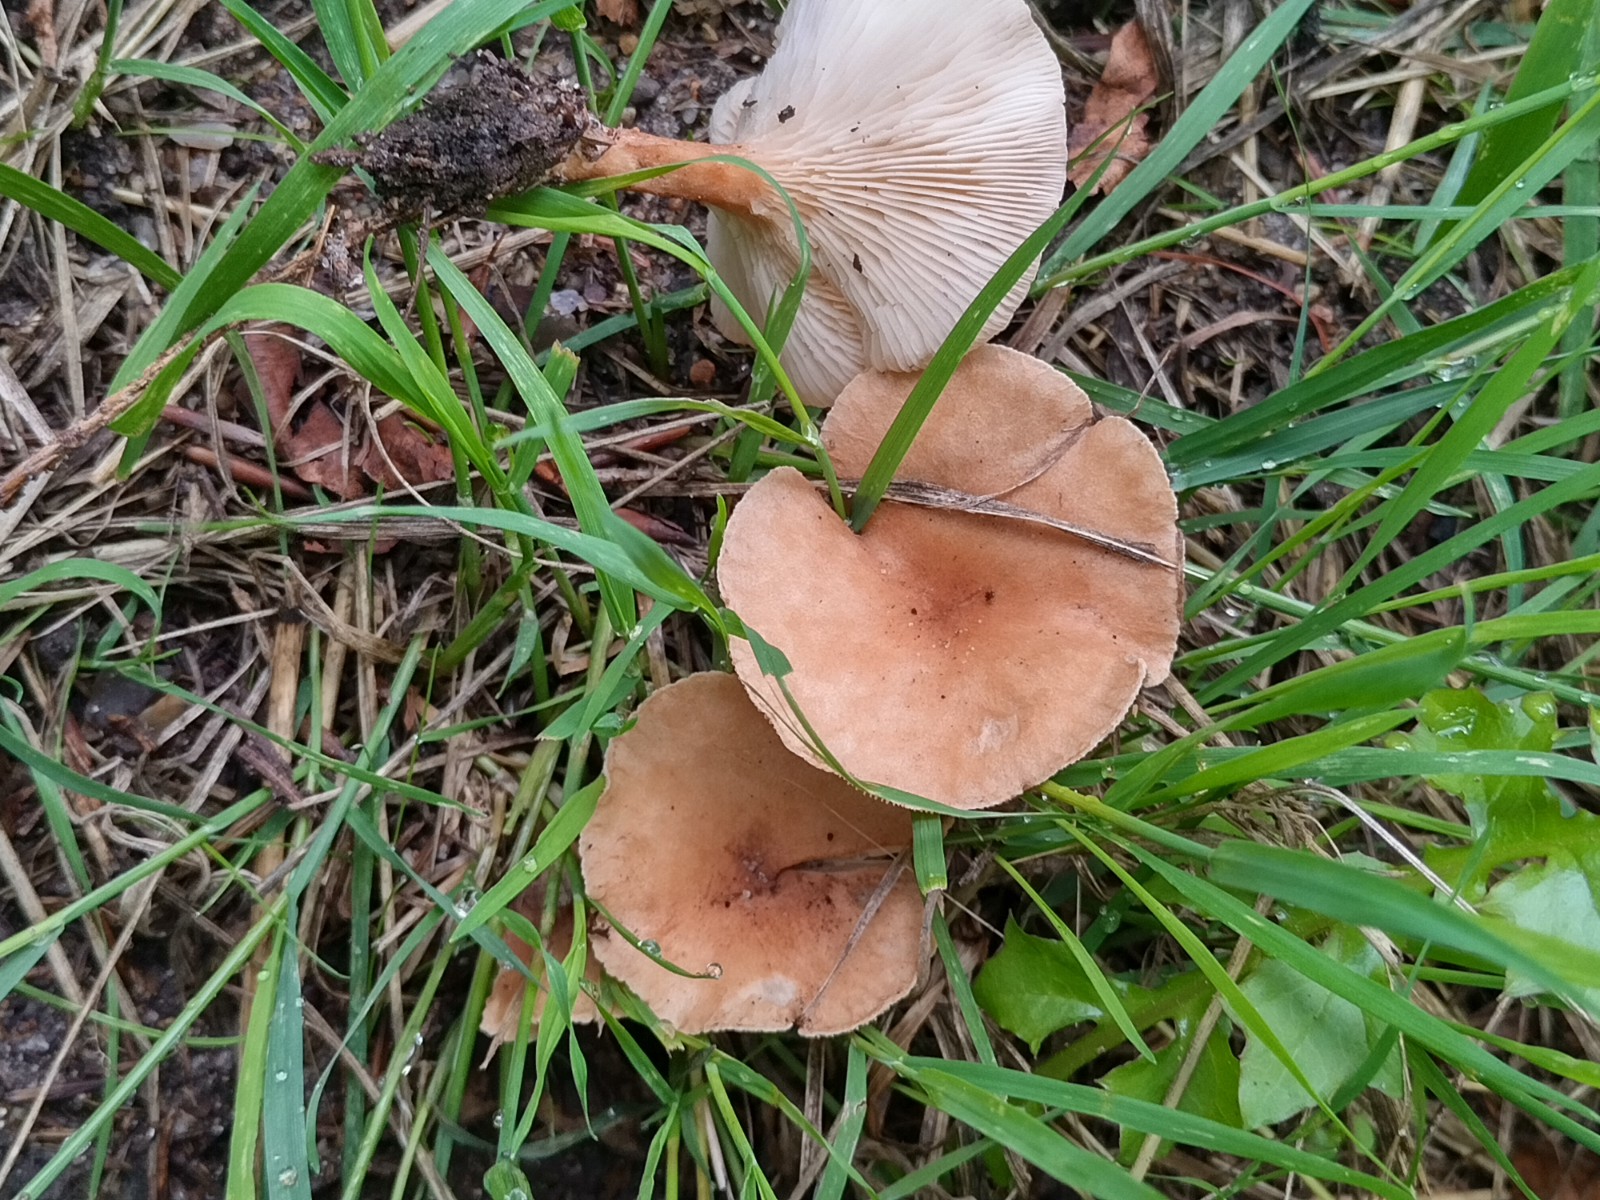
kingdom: Fungi
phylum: Basidiomycota
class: Agaricomycetes
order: Agaricales
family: Tricholomataceae
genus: Infundibulicybe
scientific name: Infundibulicybe gibba
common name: almindelig tragthat
